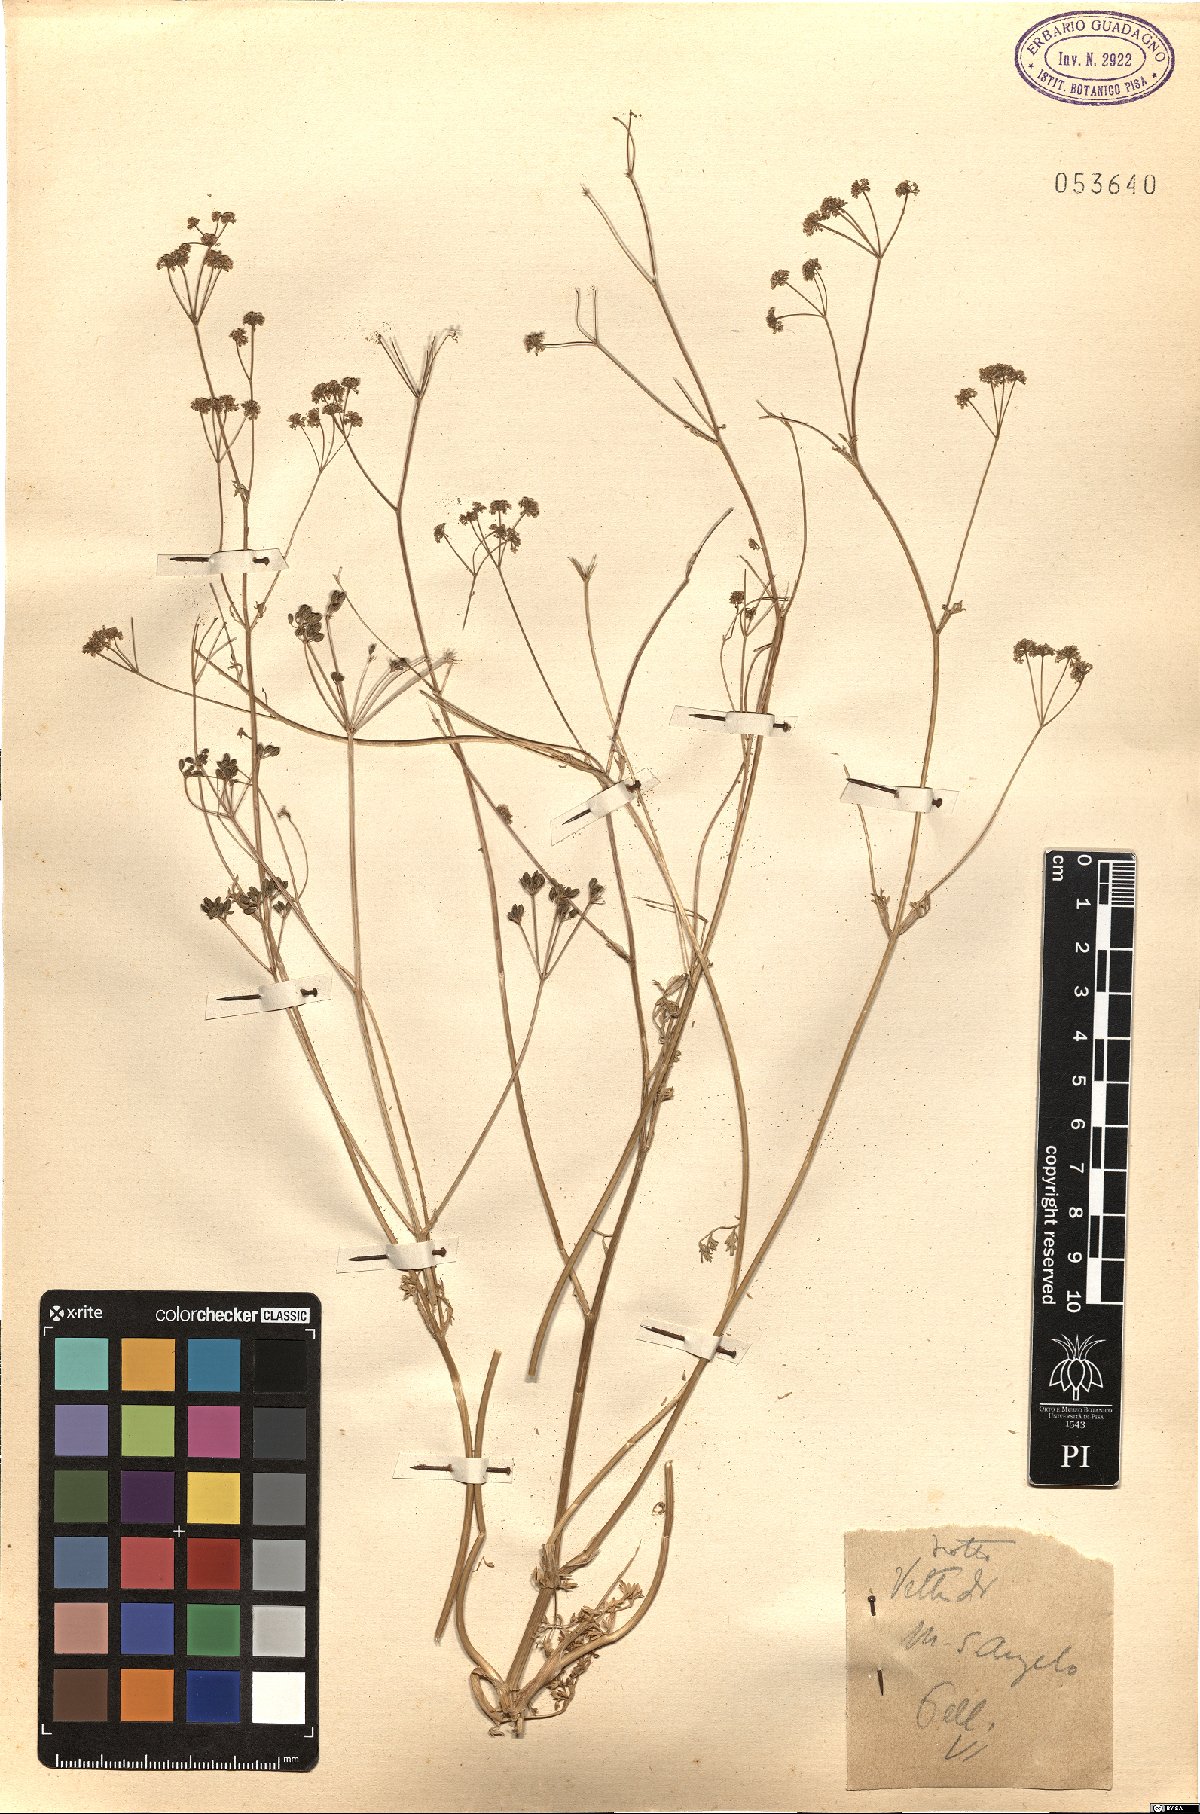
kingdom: Plantae
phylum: Tracheophyta
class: Magnoliopsida
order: Apiales
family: Apiaceae
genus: Trinia
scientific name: Trinia
